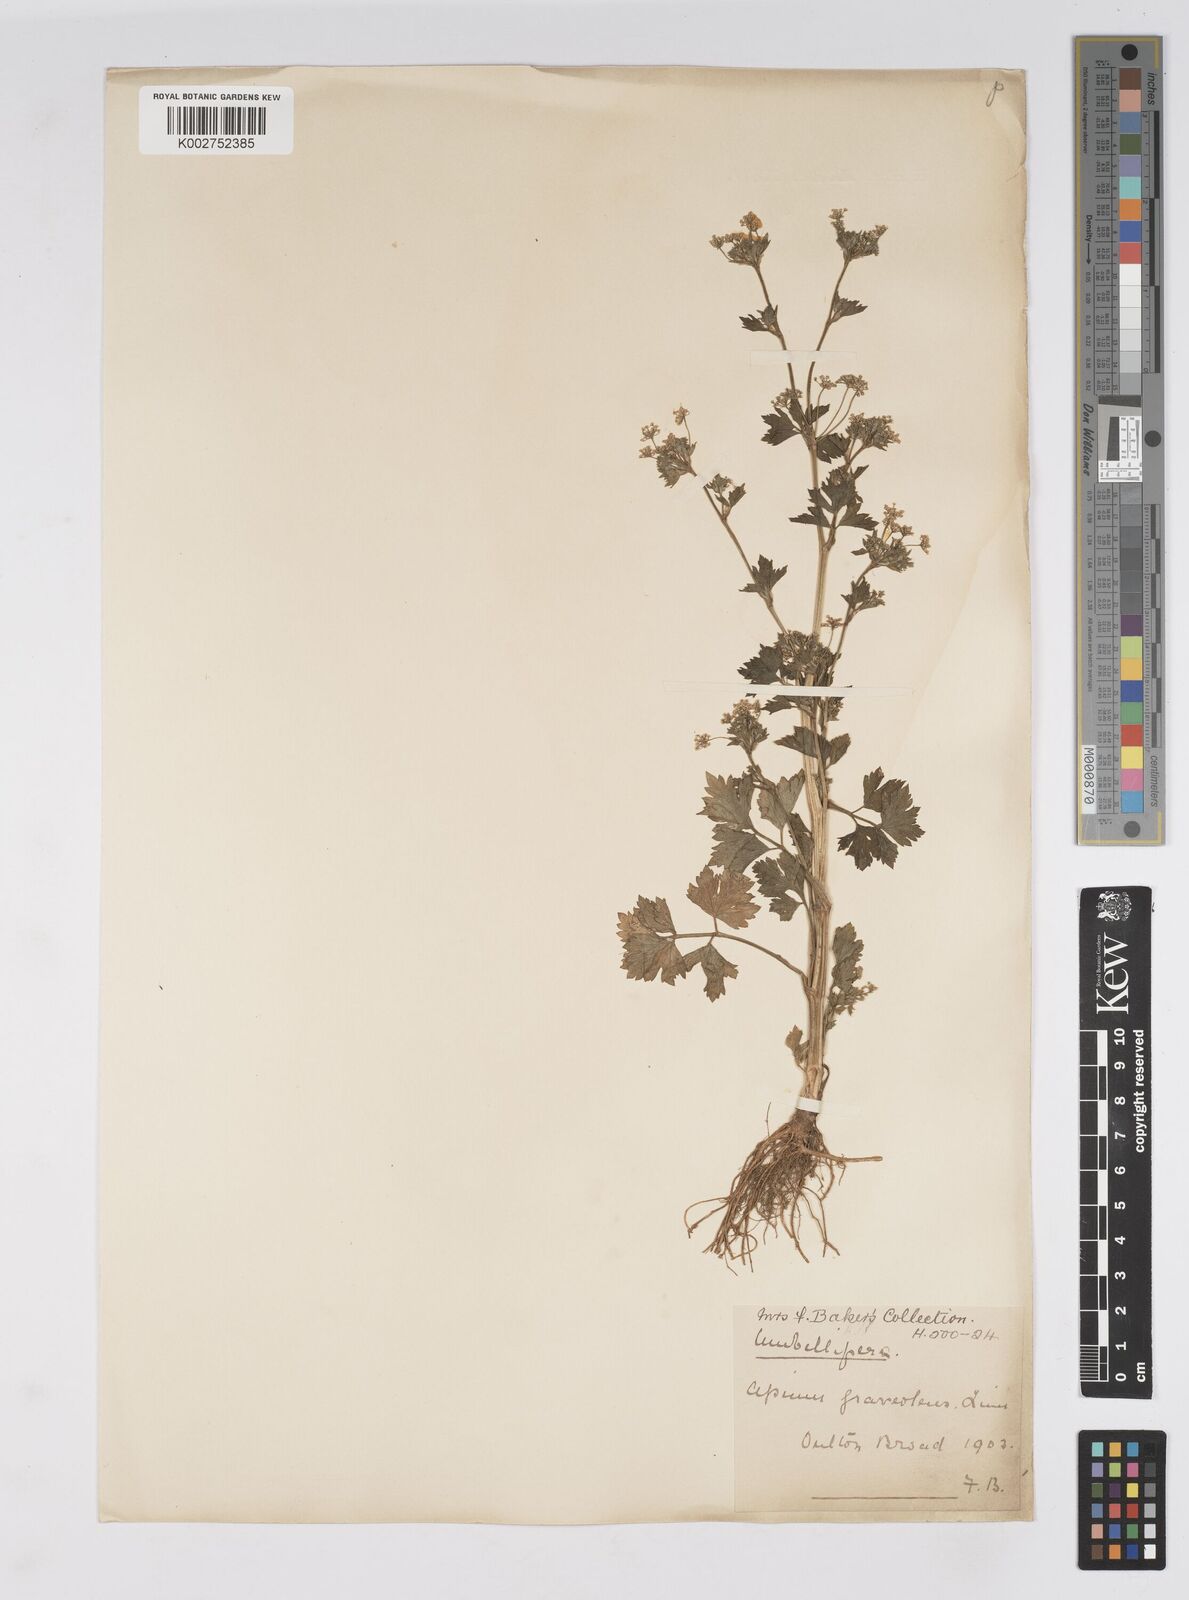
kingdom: Plantae
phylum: Tracheophyta
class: Magnoliopsida
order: Apiales
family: Apiaceae
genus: Apium
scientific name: Apium graveolens
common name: Wild celery
